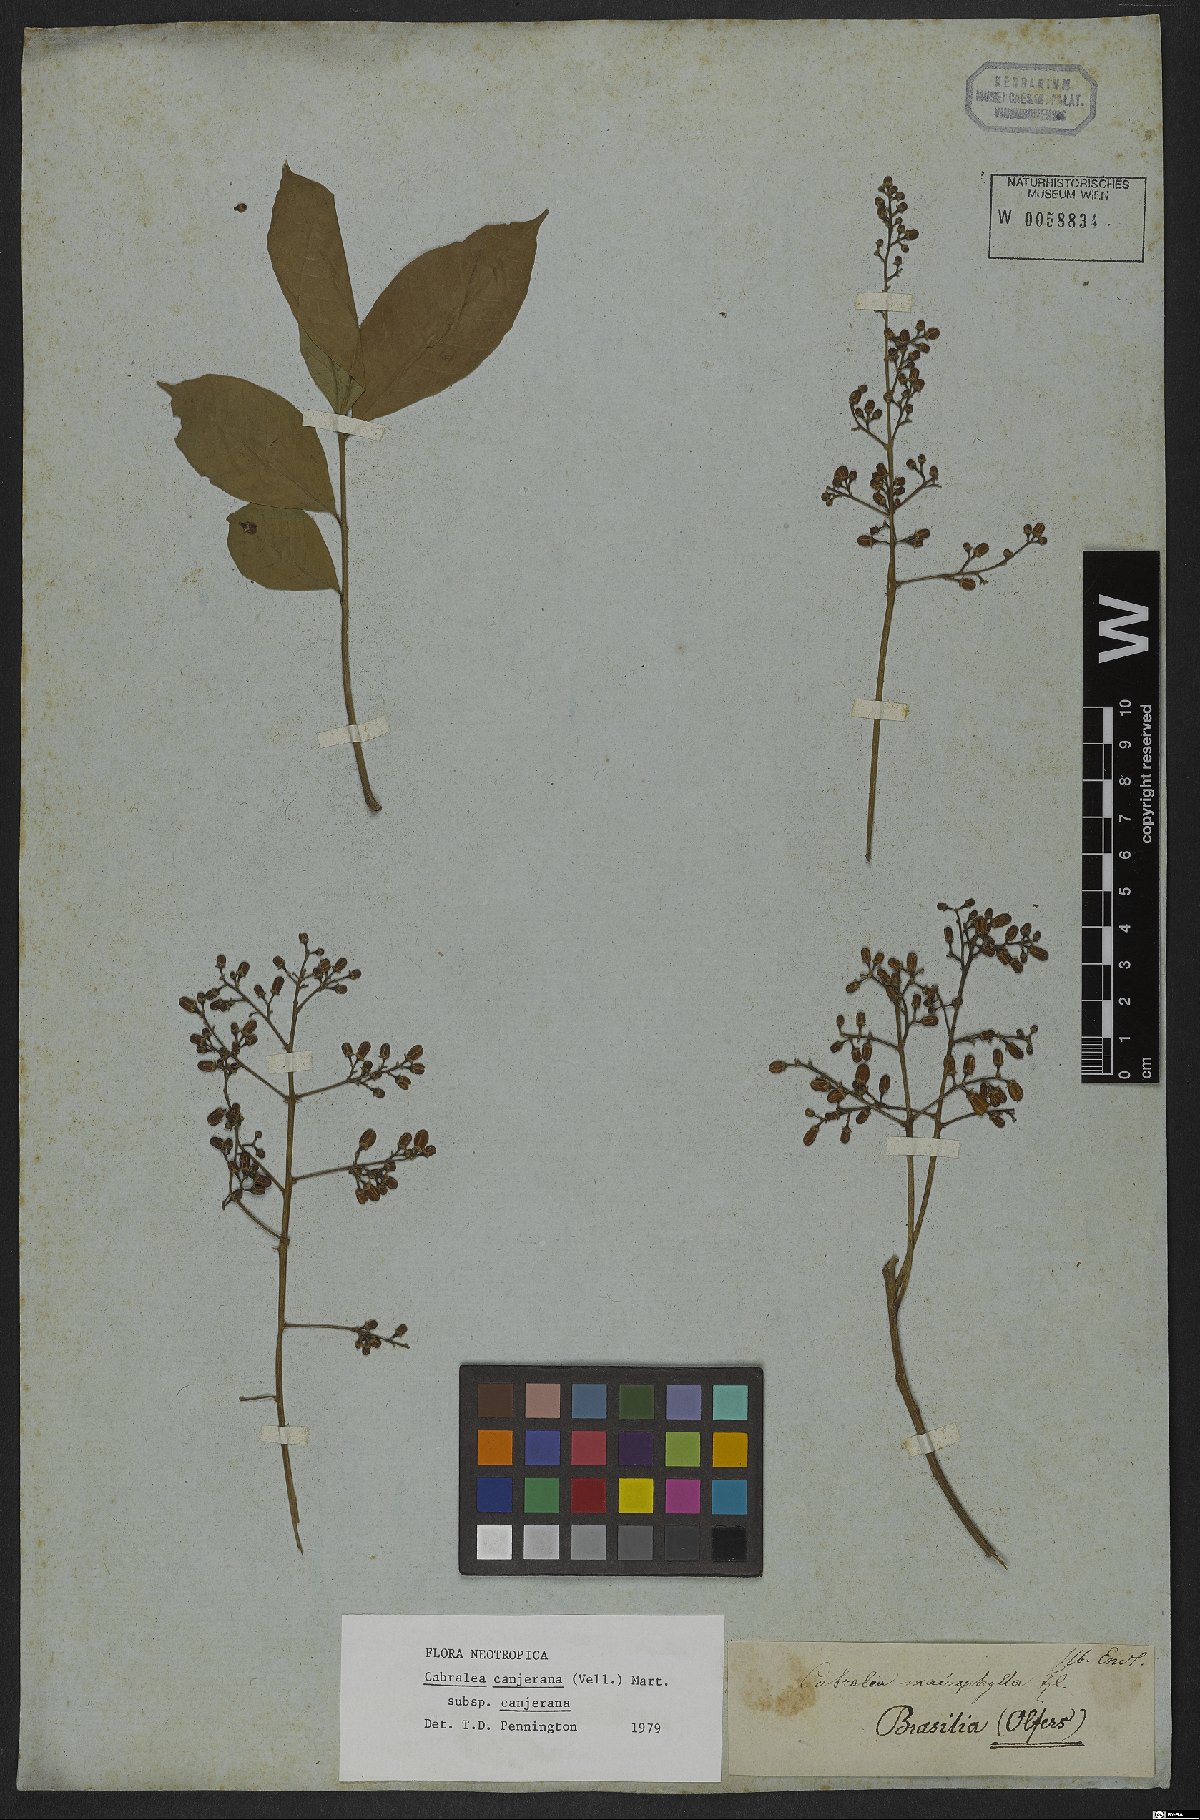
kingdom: Plantae
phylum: Tracheophyta
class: Magnoliopsida
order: Sapindales
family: Meliaceae
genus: Cabralea
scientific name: Cabralea canjerana
